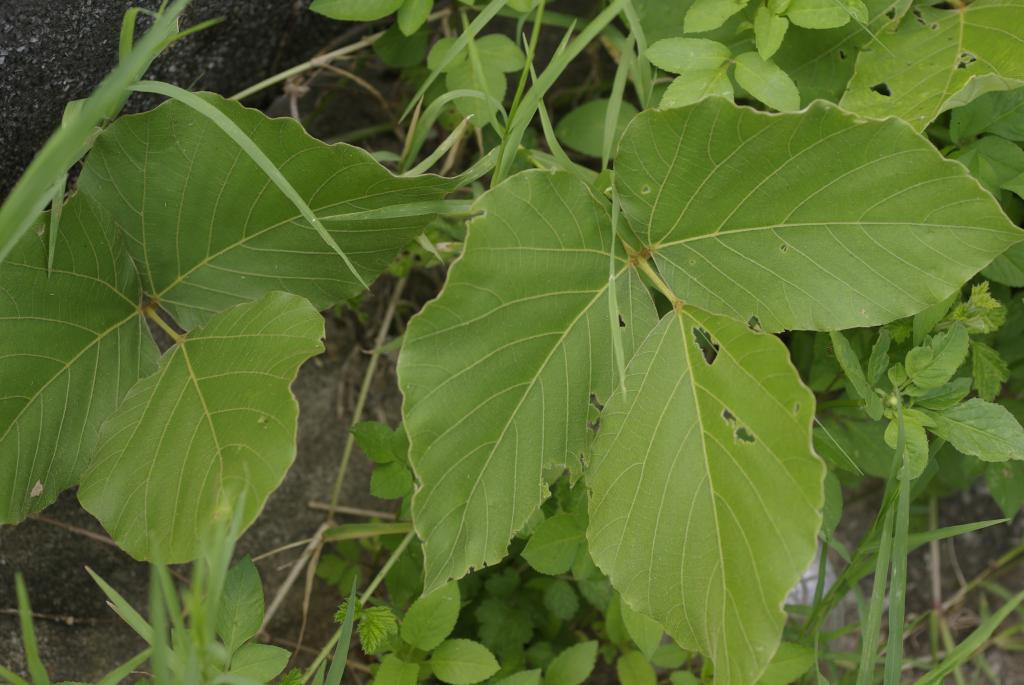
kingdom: Plantae
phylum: Tracheophyta
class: Magnoliopsida
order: Fabales
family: Fabaceae
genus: Pueraria
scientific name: Pueraria montana
